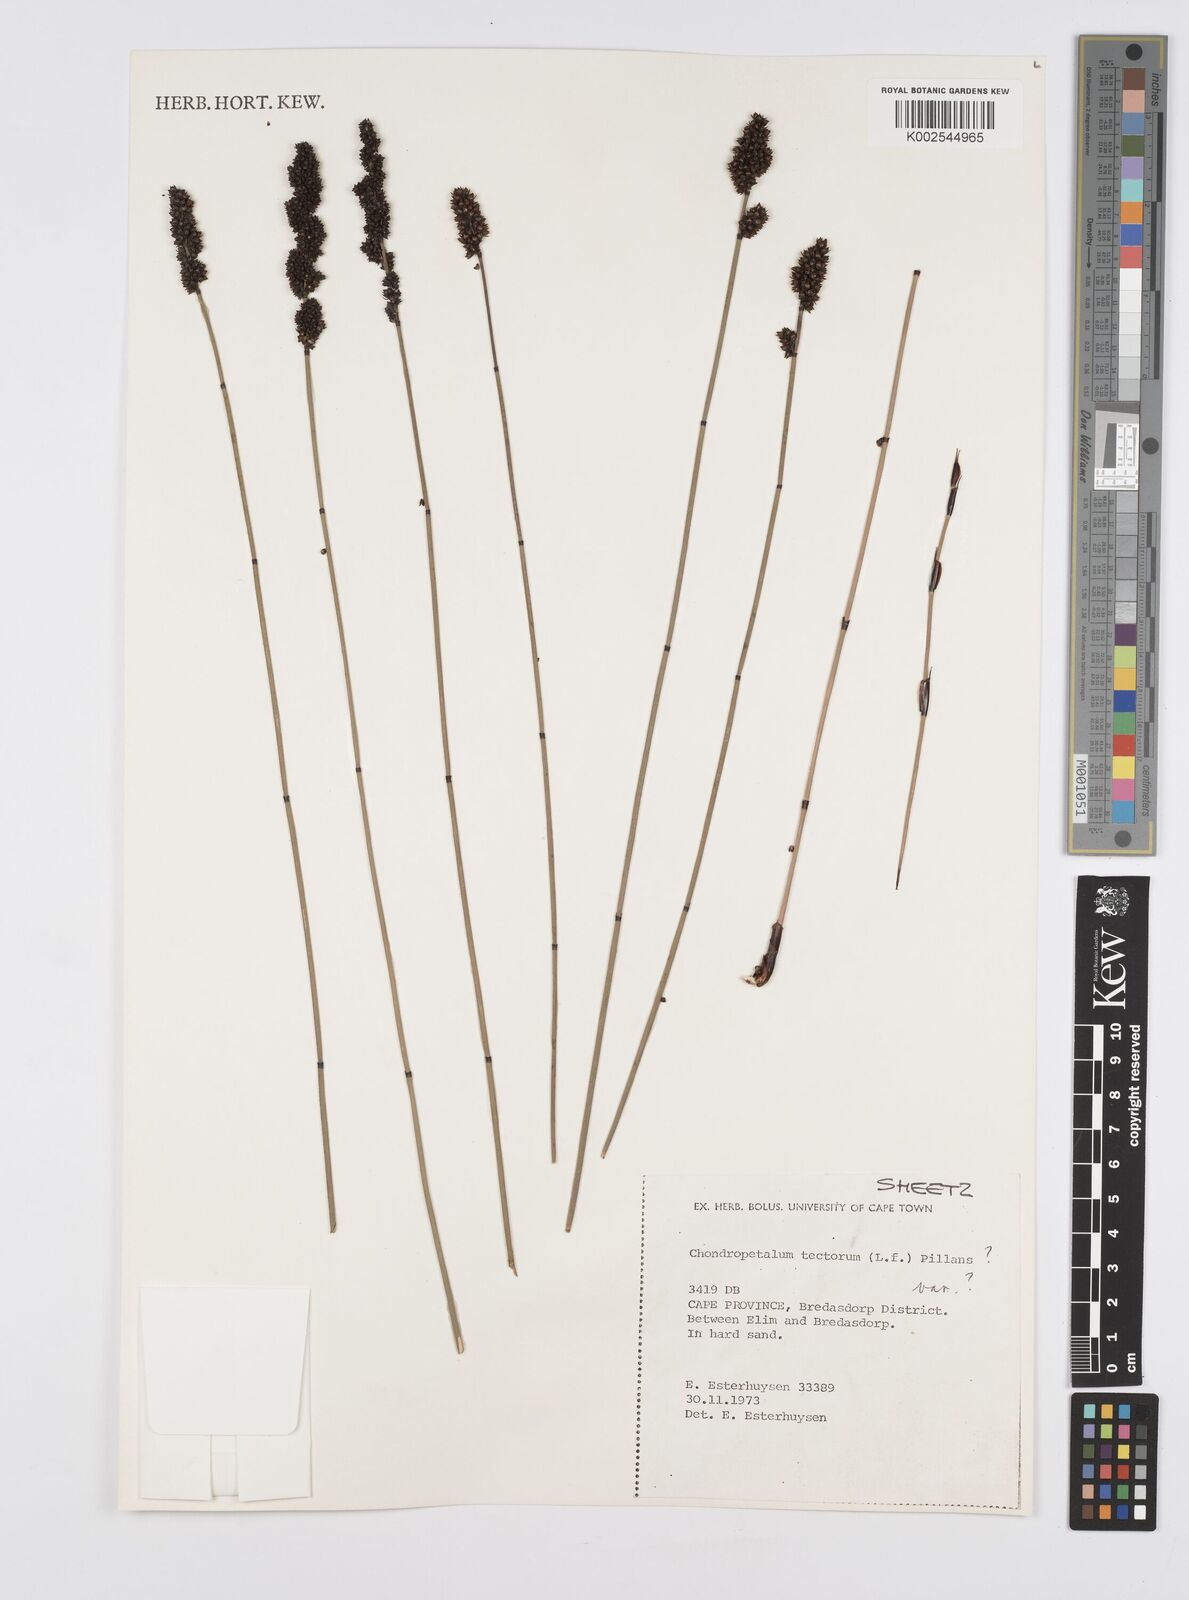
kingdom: Plantae
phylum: Tracheophyta
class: Liliopsida
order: Poales
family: Restionaceae
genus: Elegia
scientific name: Elegia tectorum
